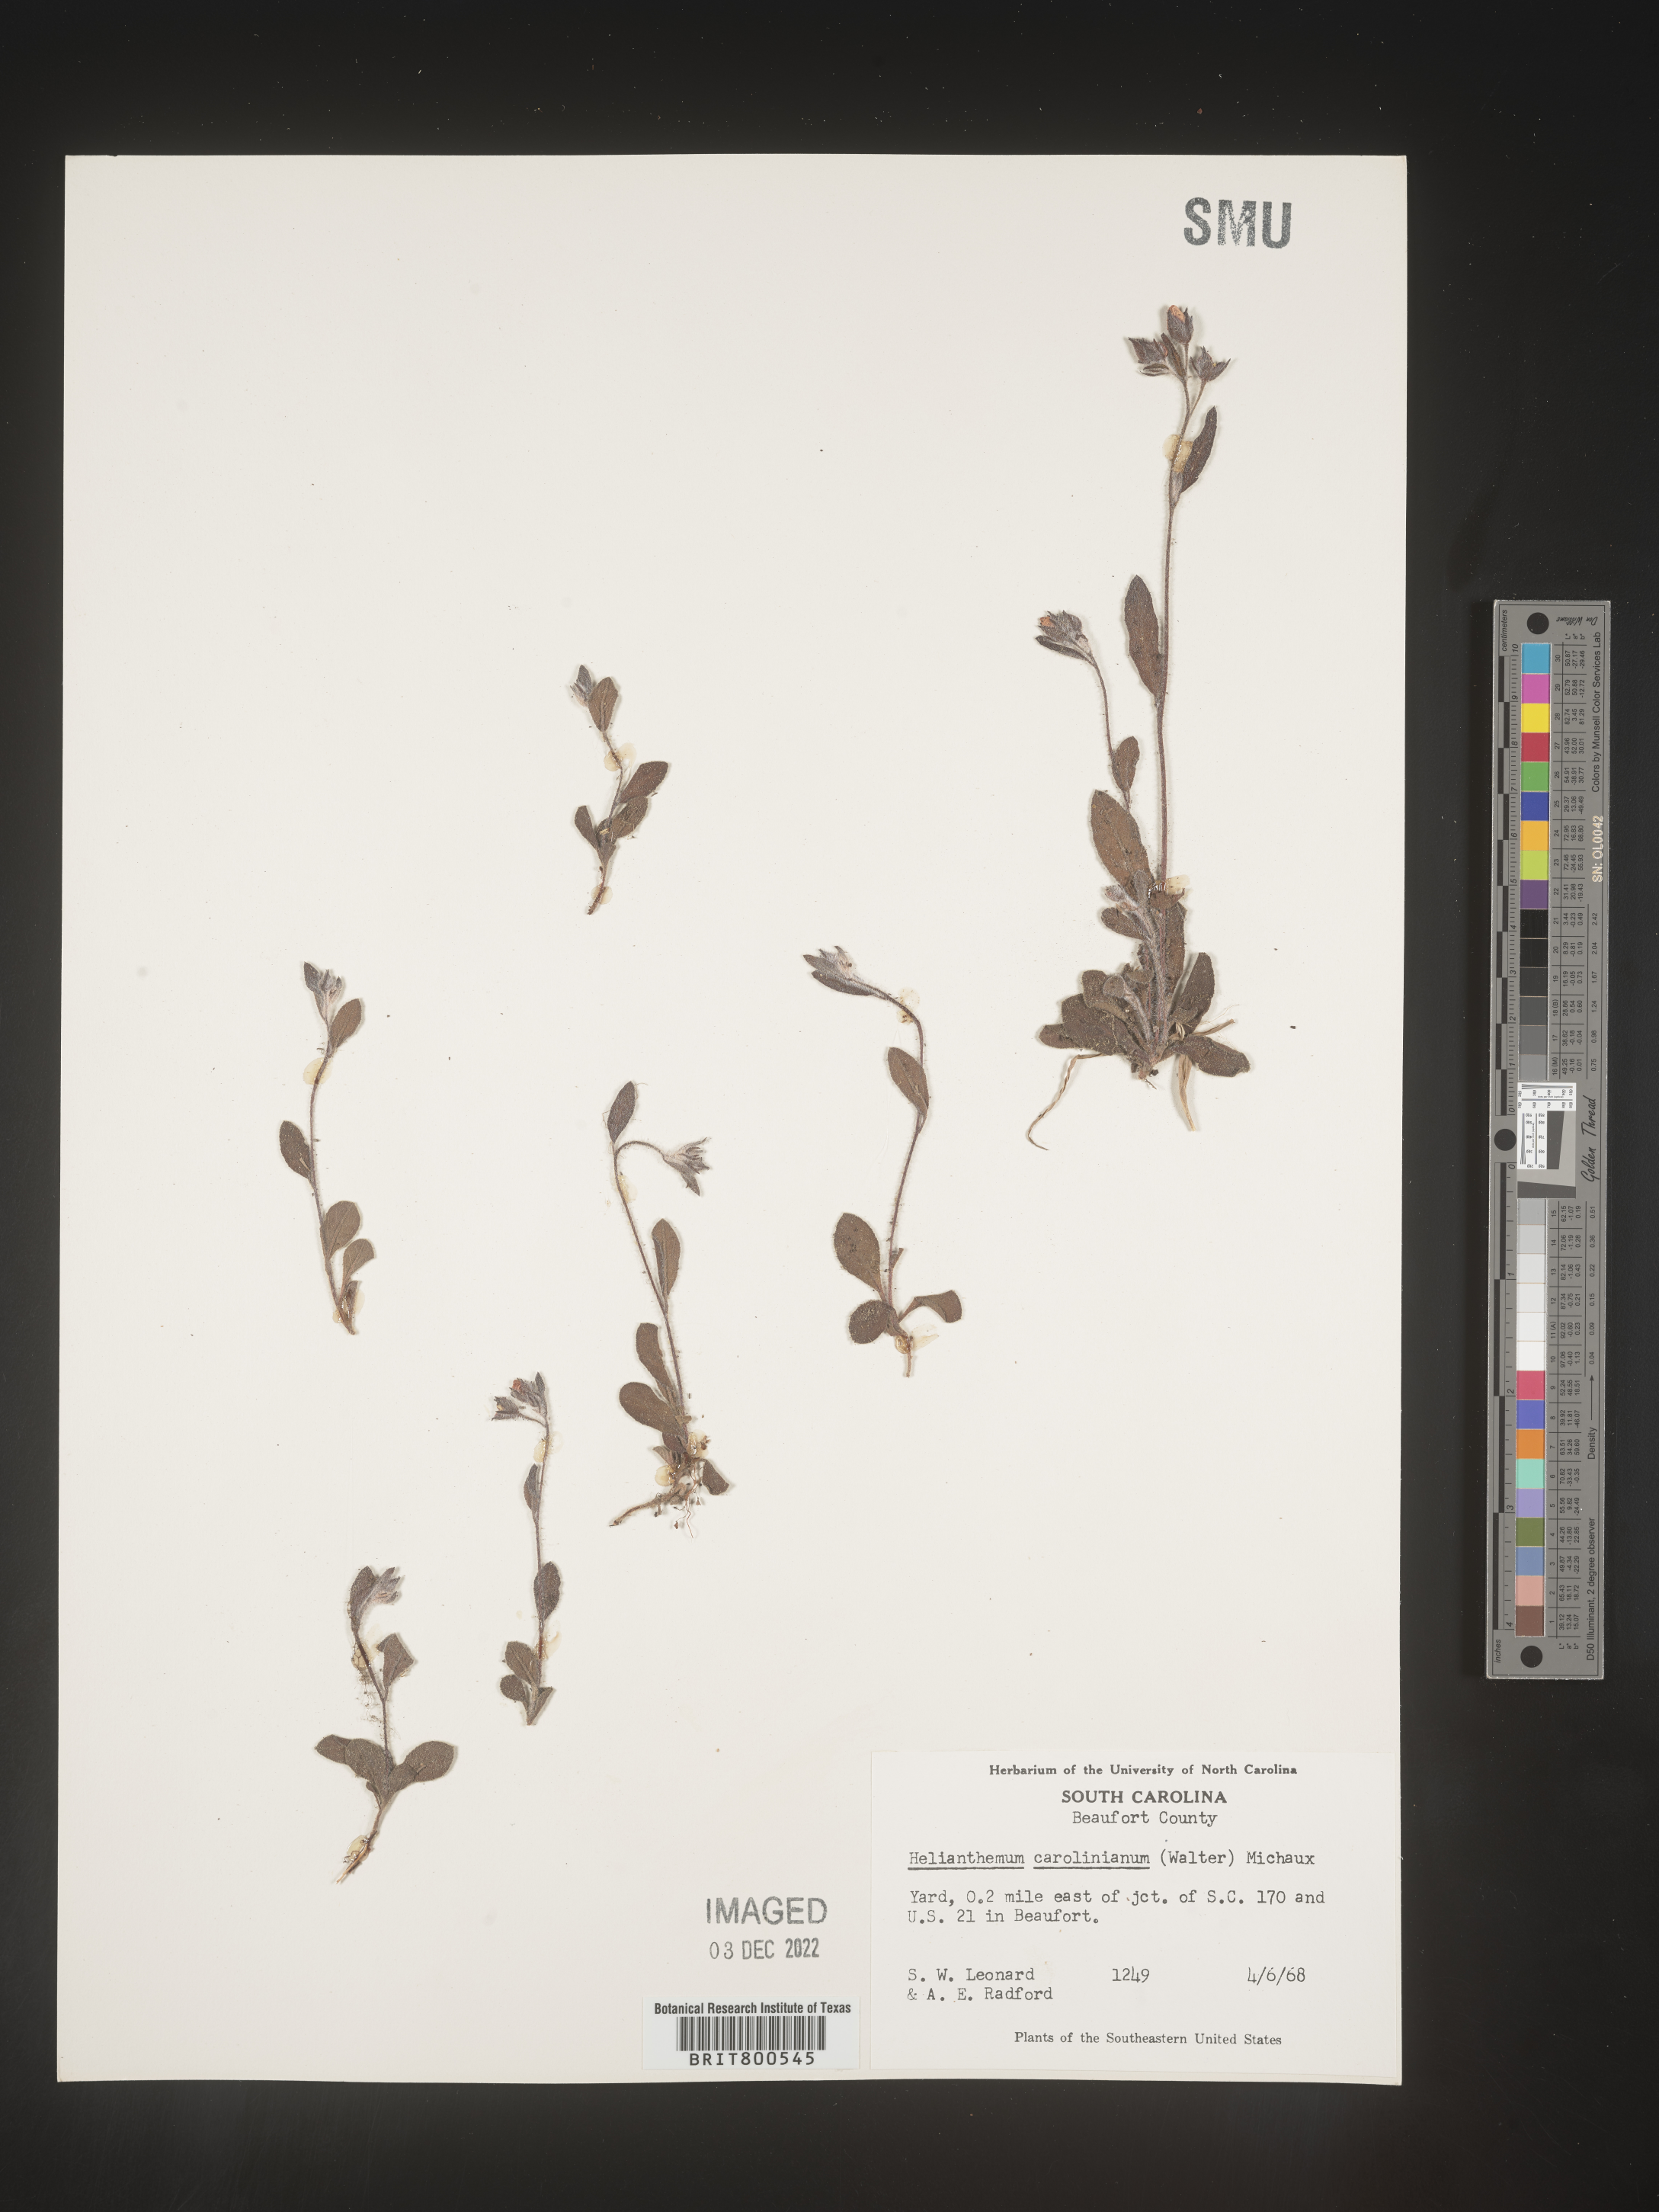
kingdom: Plantae
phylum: Tracheophyta
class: Magnoliopsida
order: Malvales
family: Cistaceae
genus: Crocanthemum
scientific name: Crocanthemum carolinianum
